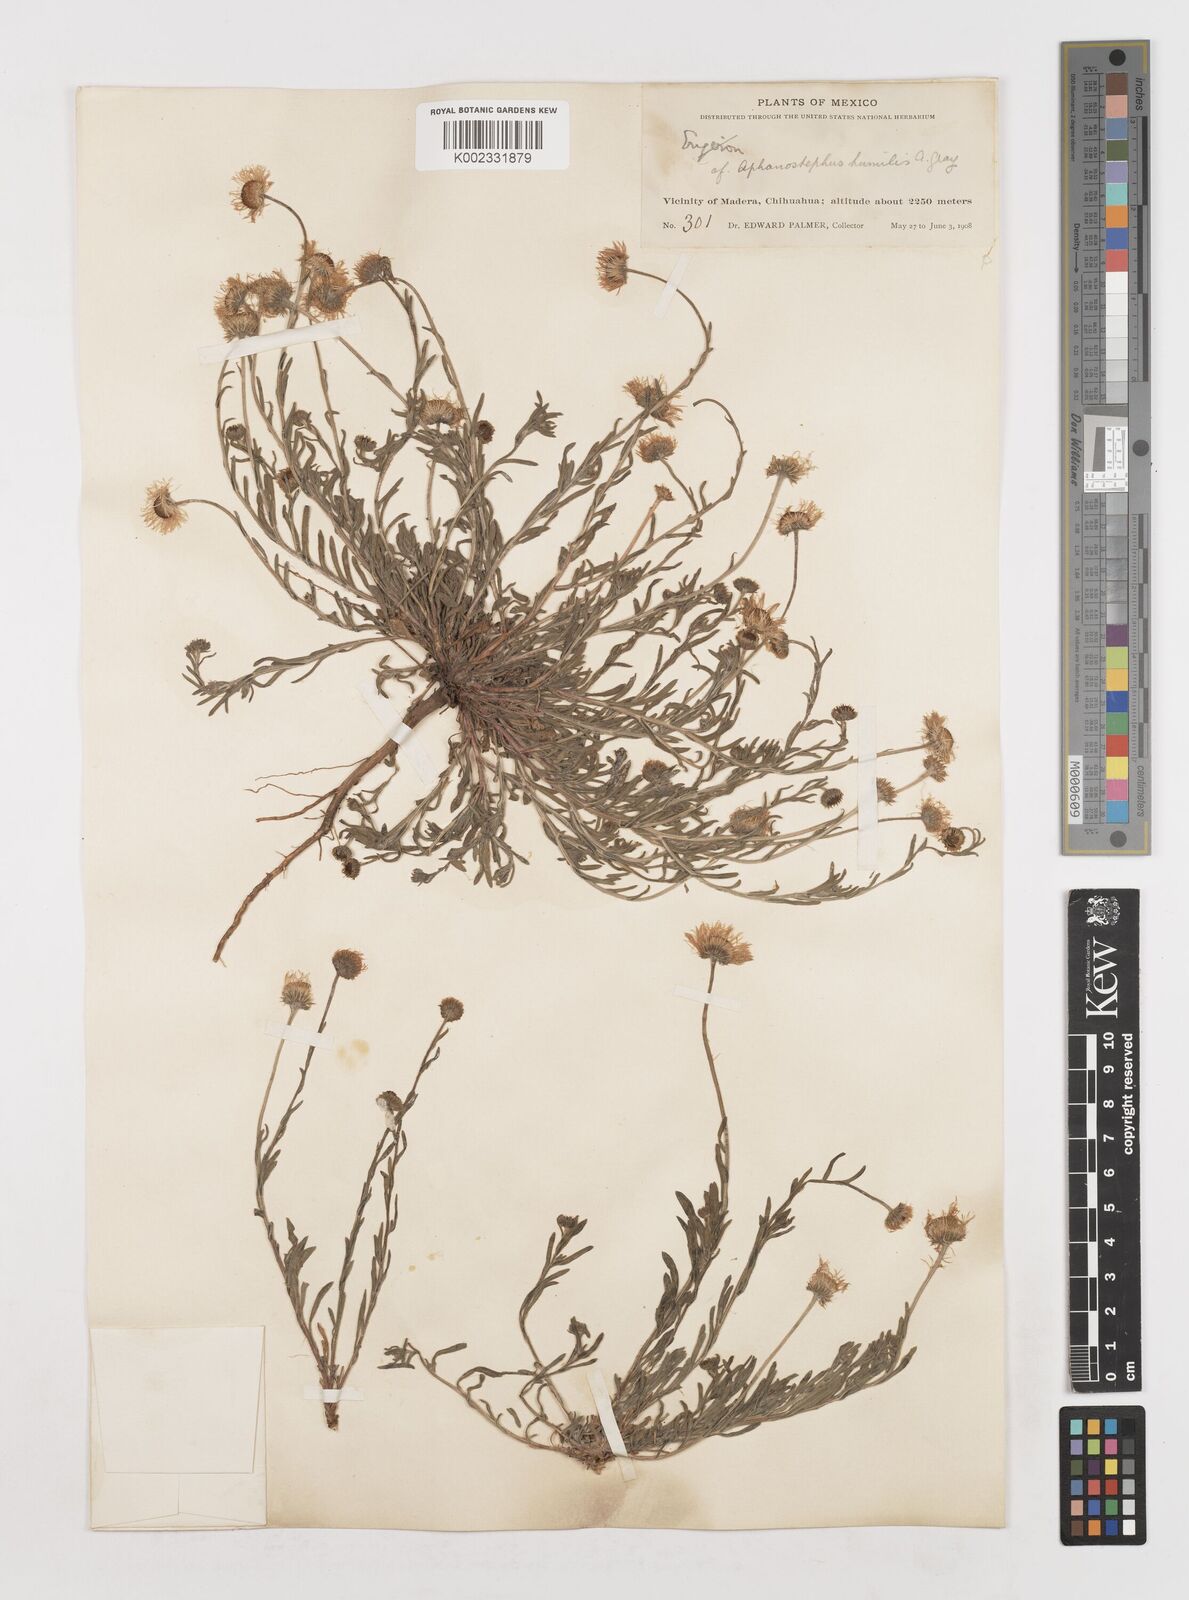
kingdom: Plantae
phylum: Tracheophyta
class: Magnoliopsida
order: Asterales
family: Asteraceae
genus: Erigeron
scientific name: Erigeron
